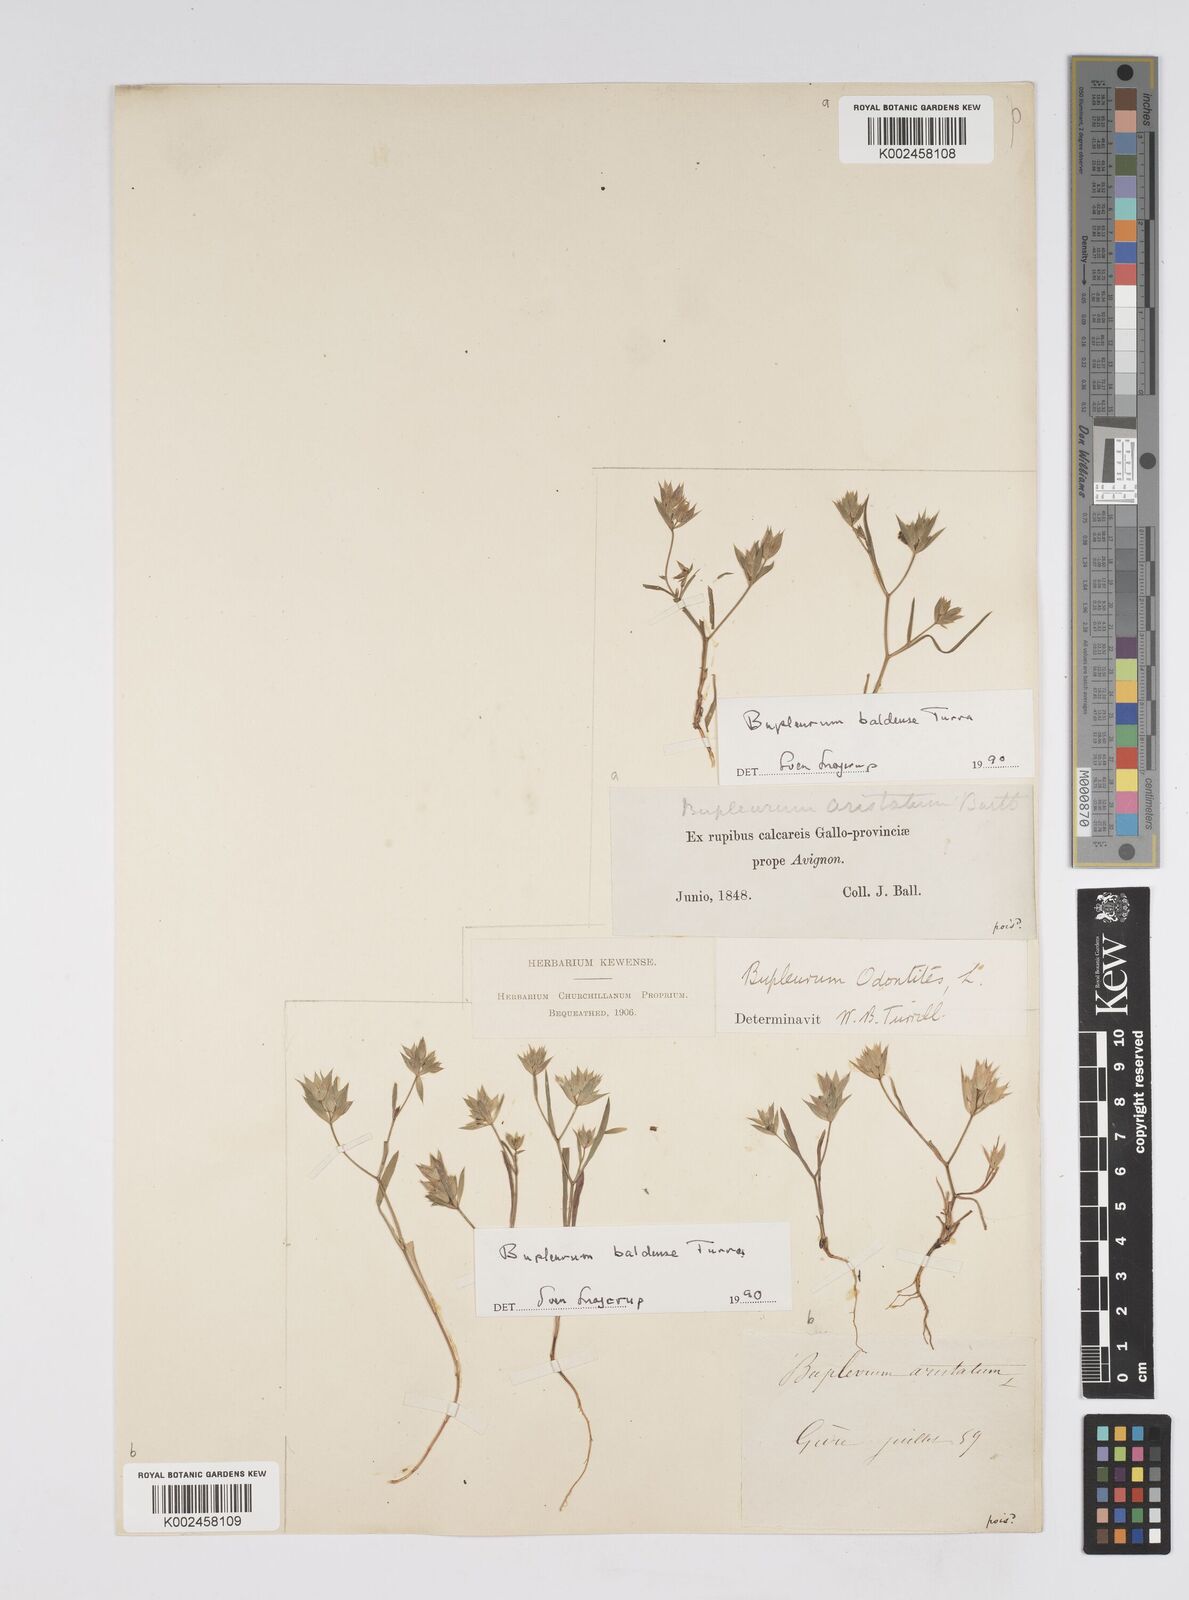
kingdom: Plantae
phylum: Tracheophyta
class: Magnoliopsida
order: Apiales
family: Apiaceae
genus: Bupleurum
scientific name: Bupleurum baldense
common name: Small hare's-ear
